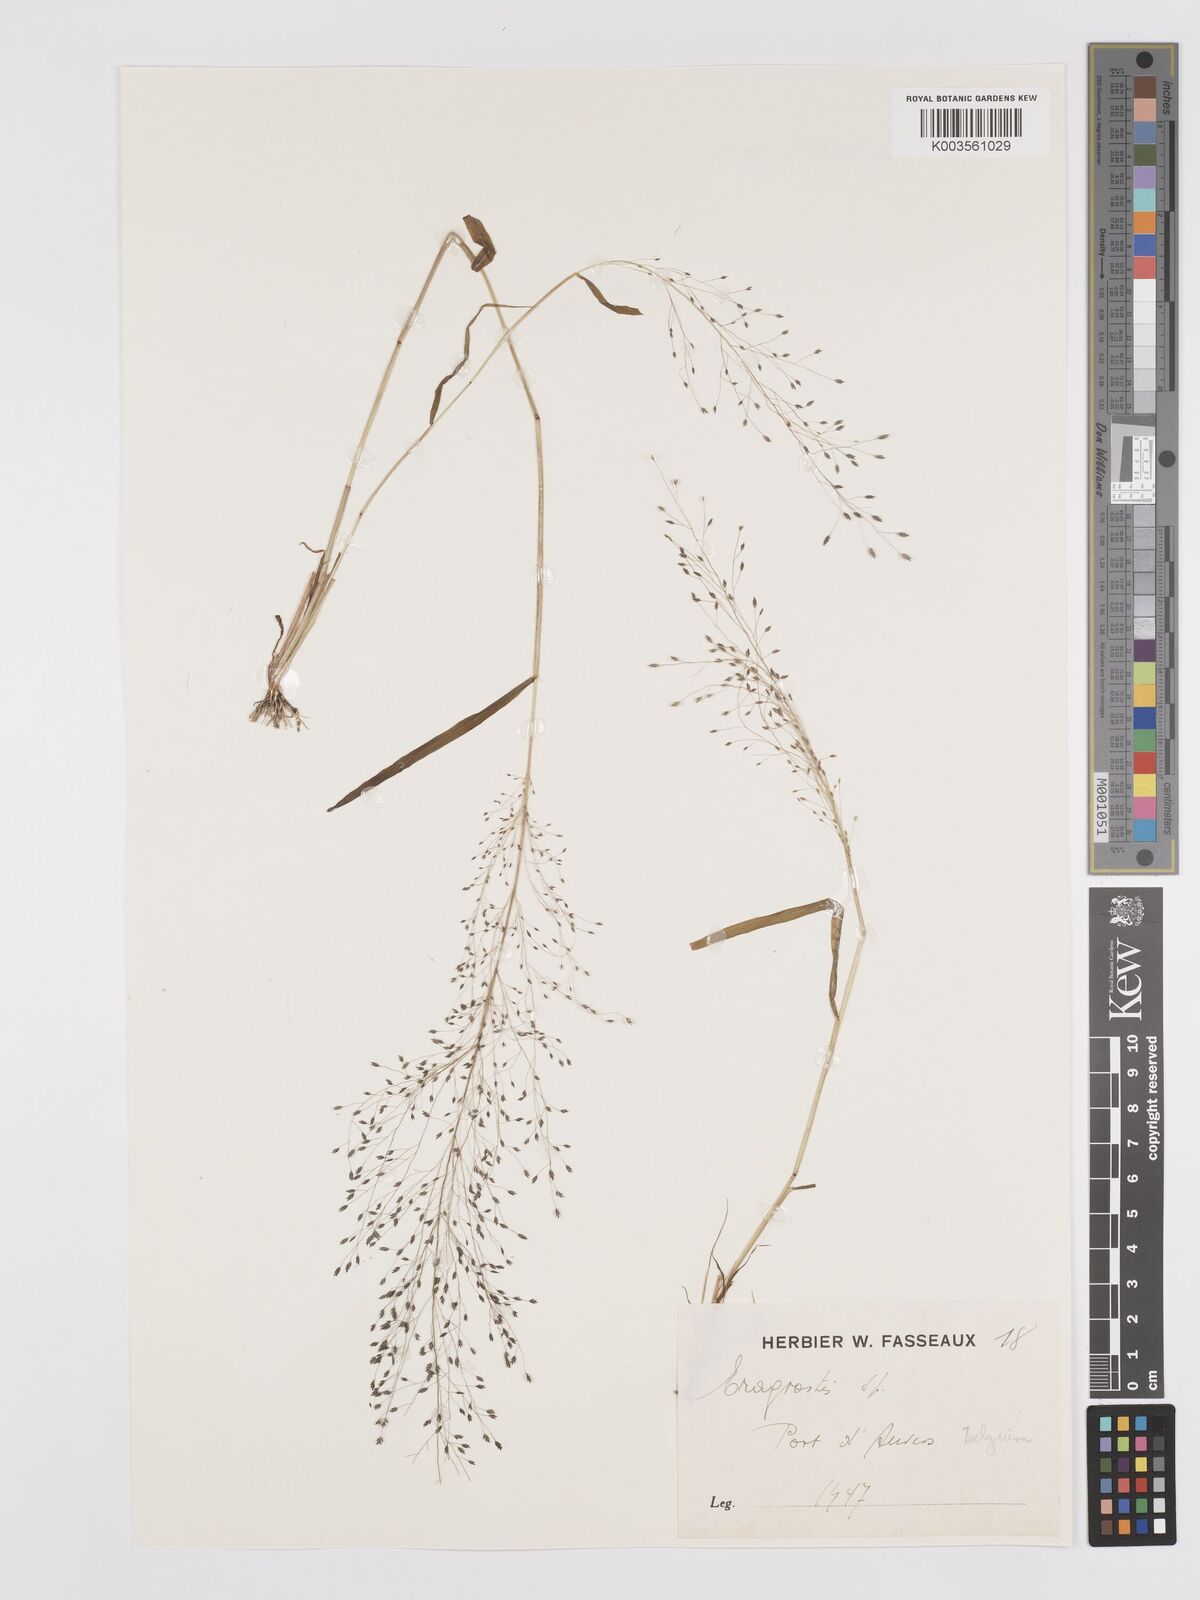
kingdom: Plantae
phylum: Tracheophyta
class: Liliopsida
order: Poales
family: Poaceae
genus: Eragrostis
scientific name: Eragrostis
